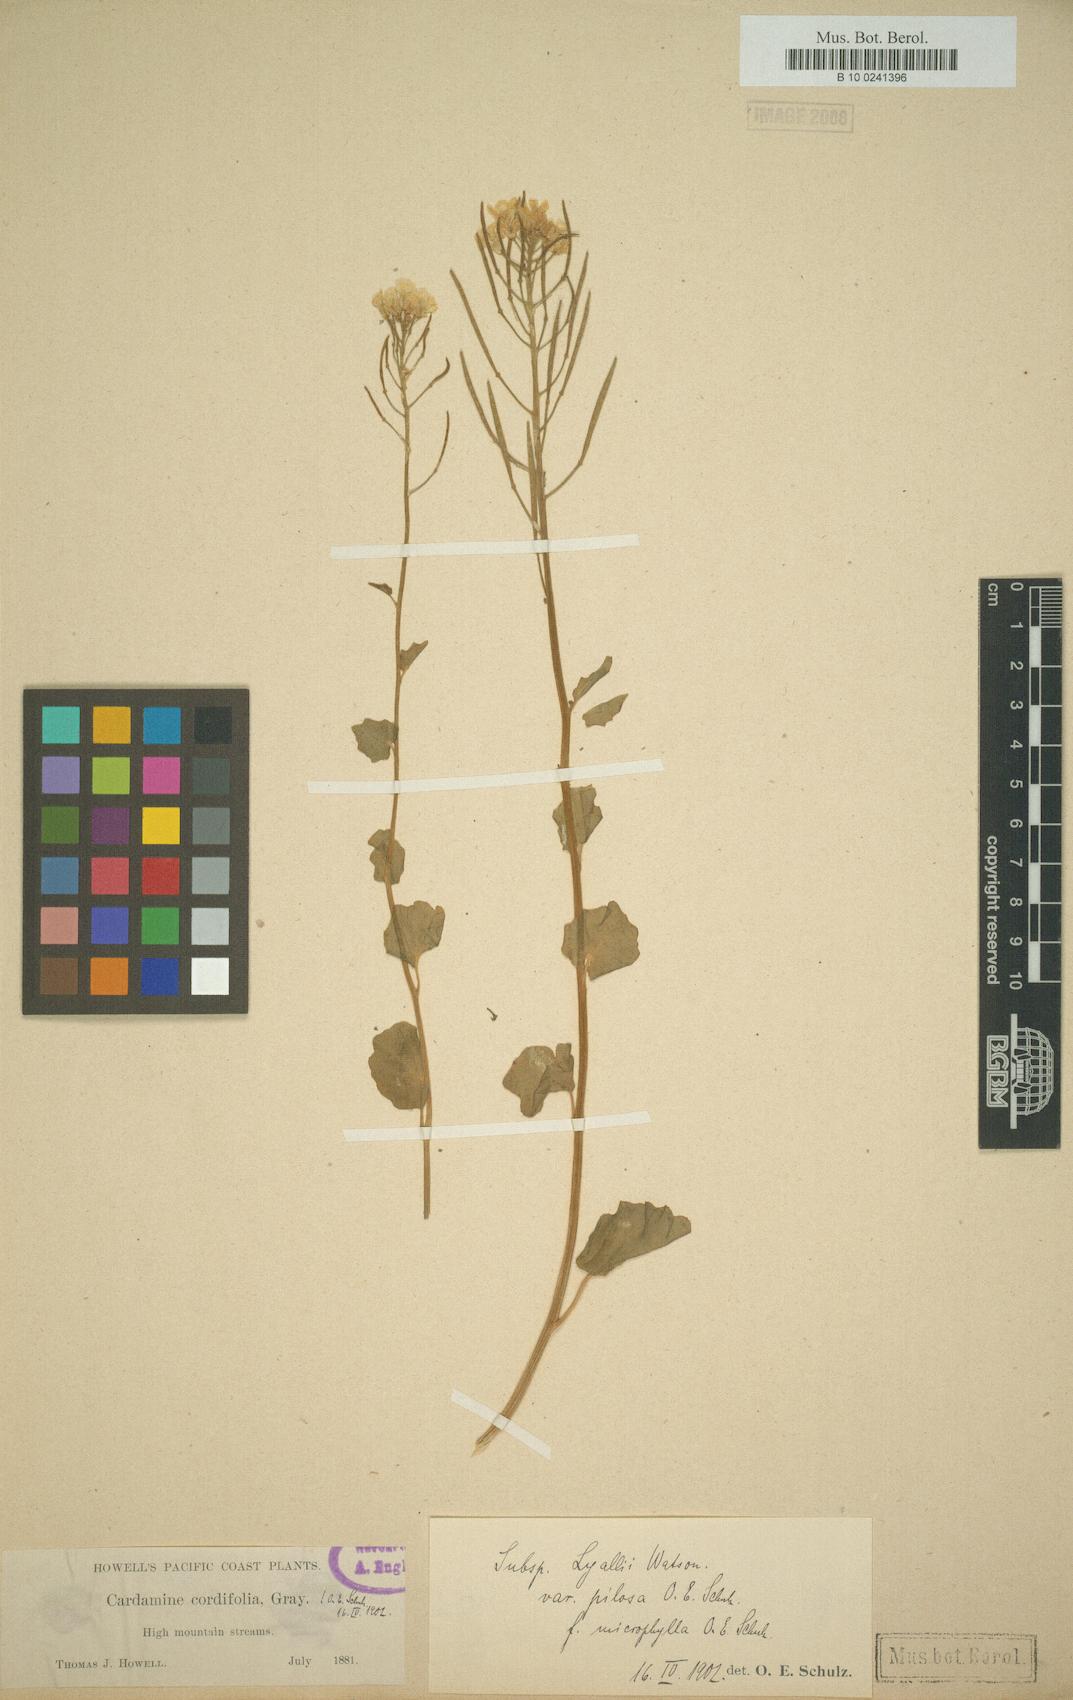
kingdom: Plantae
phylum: Tracheophyta
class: Magnoliopsida
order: Brassicales
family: Brassicaceae
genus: Cardamine
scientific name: Cardamine cordifolia
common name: Heart-leaf bittercress
